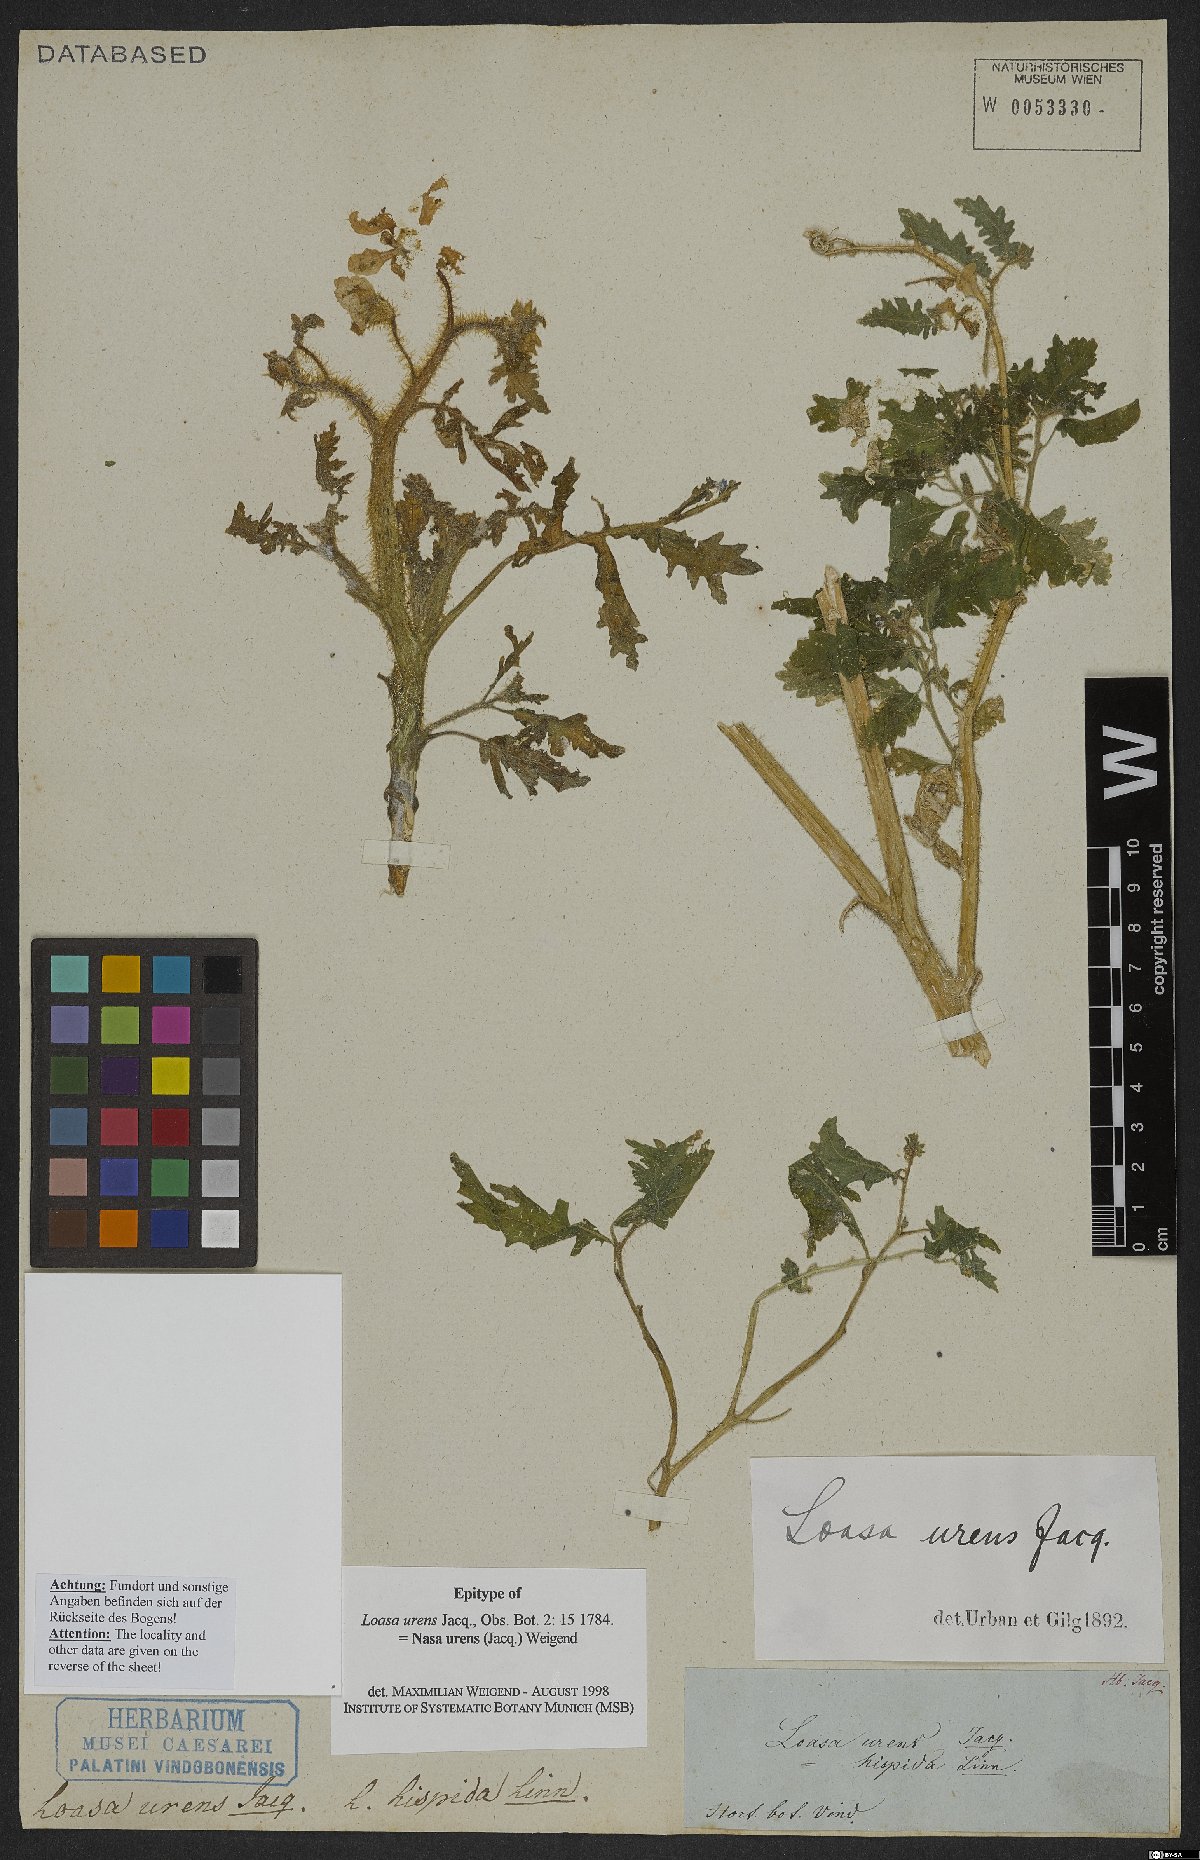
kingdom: Plantae
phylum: Tracheophyta
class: Magnoliopsida
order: Cornales
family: Loasaceae
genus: Nasa
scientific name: Nasa urens
